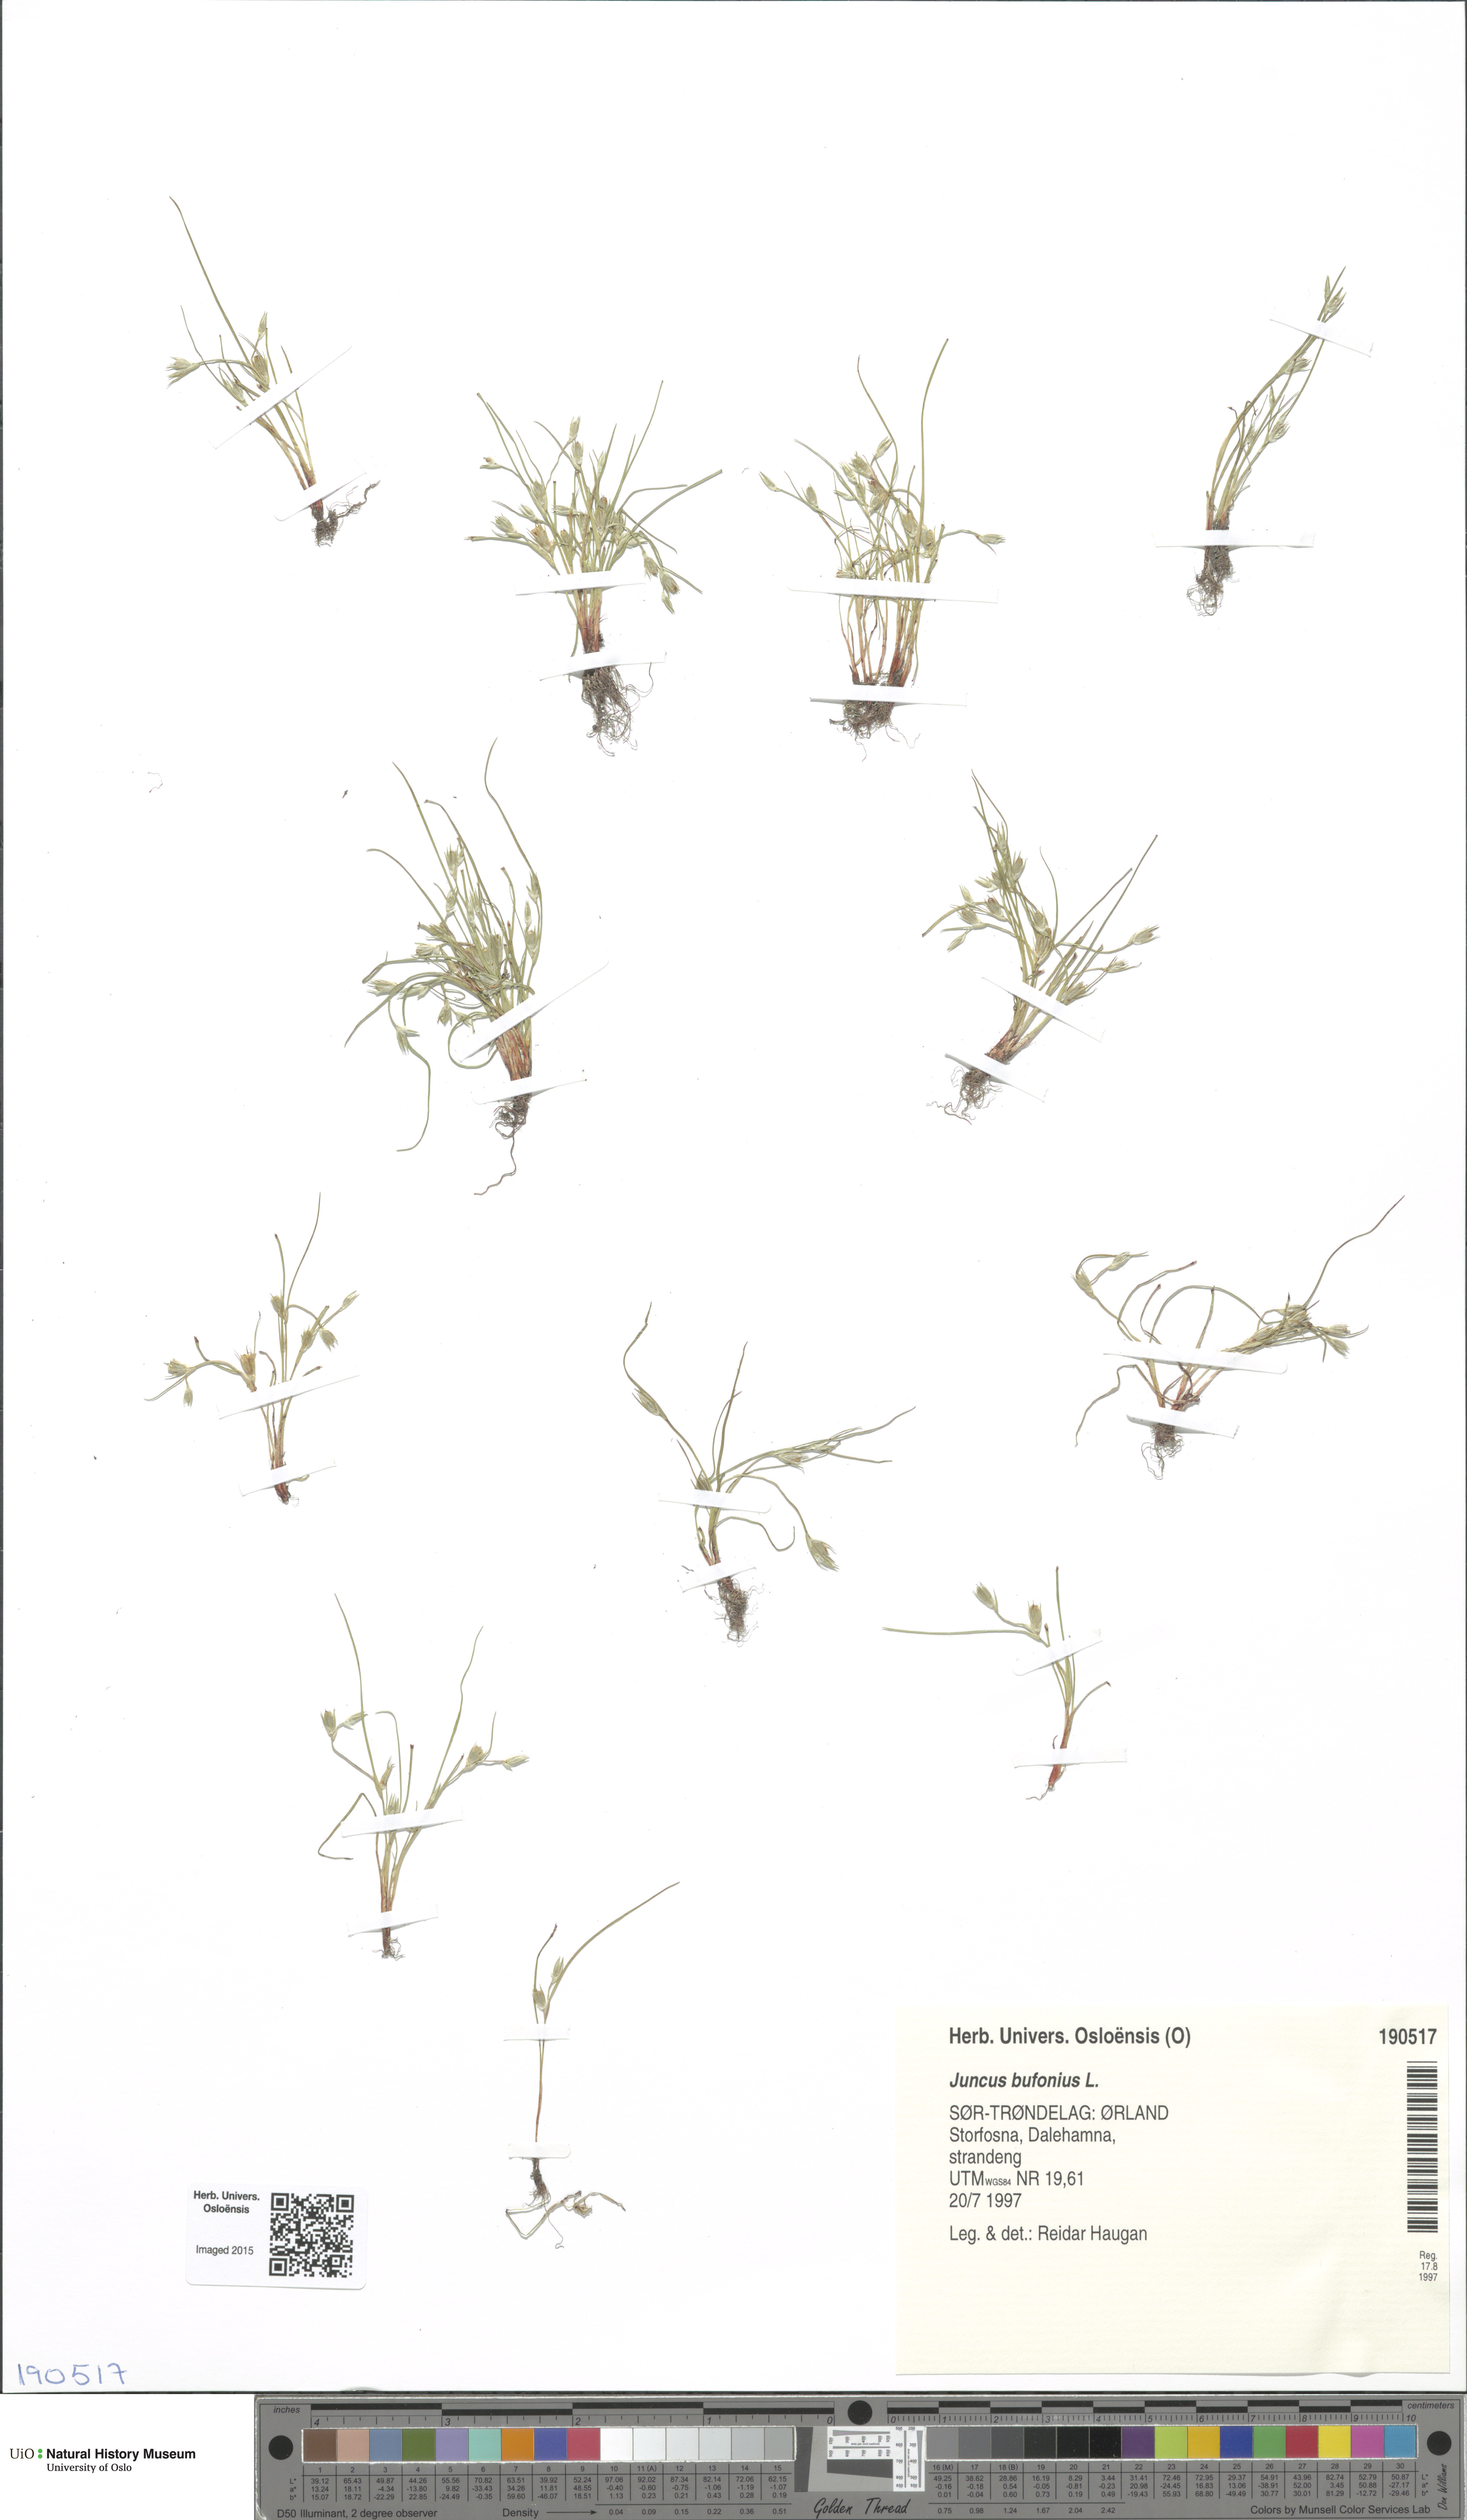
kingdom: Plantae
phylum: Tracheophyta
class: Liliopsida
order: Poales
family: Juncaceae
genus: Juncus
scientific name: Juncus bufonius
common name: Toad rush
